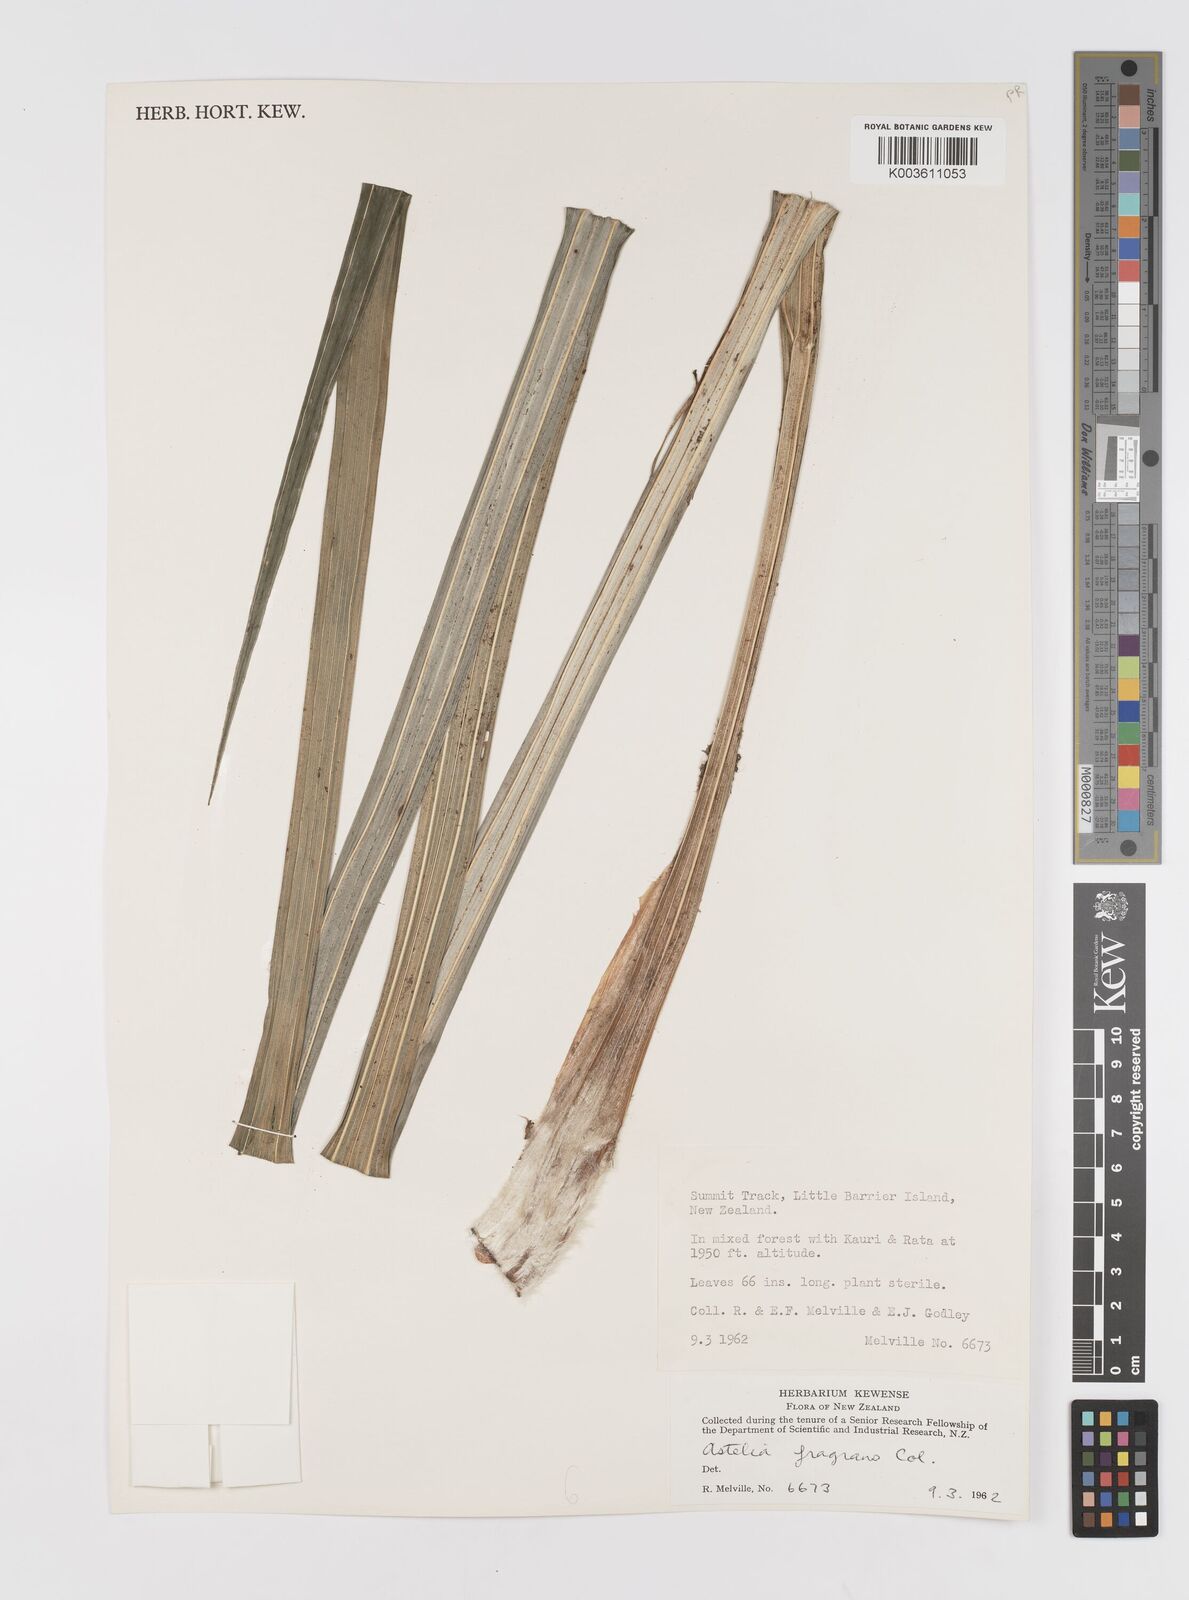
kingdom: Plantae
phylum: Tracheophyta
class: Liliopsida
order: Asparagales
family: Asteliaceae
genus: Astelia
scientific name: Astelia fragrans
